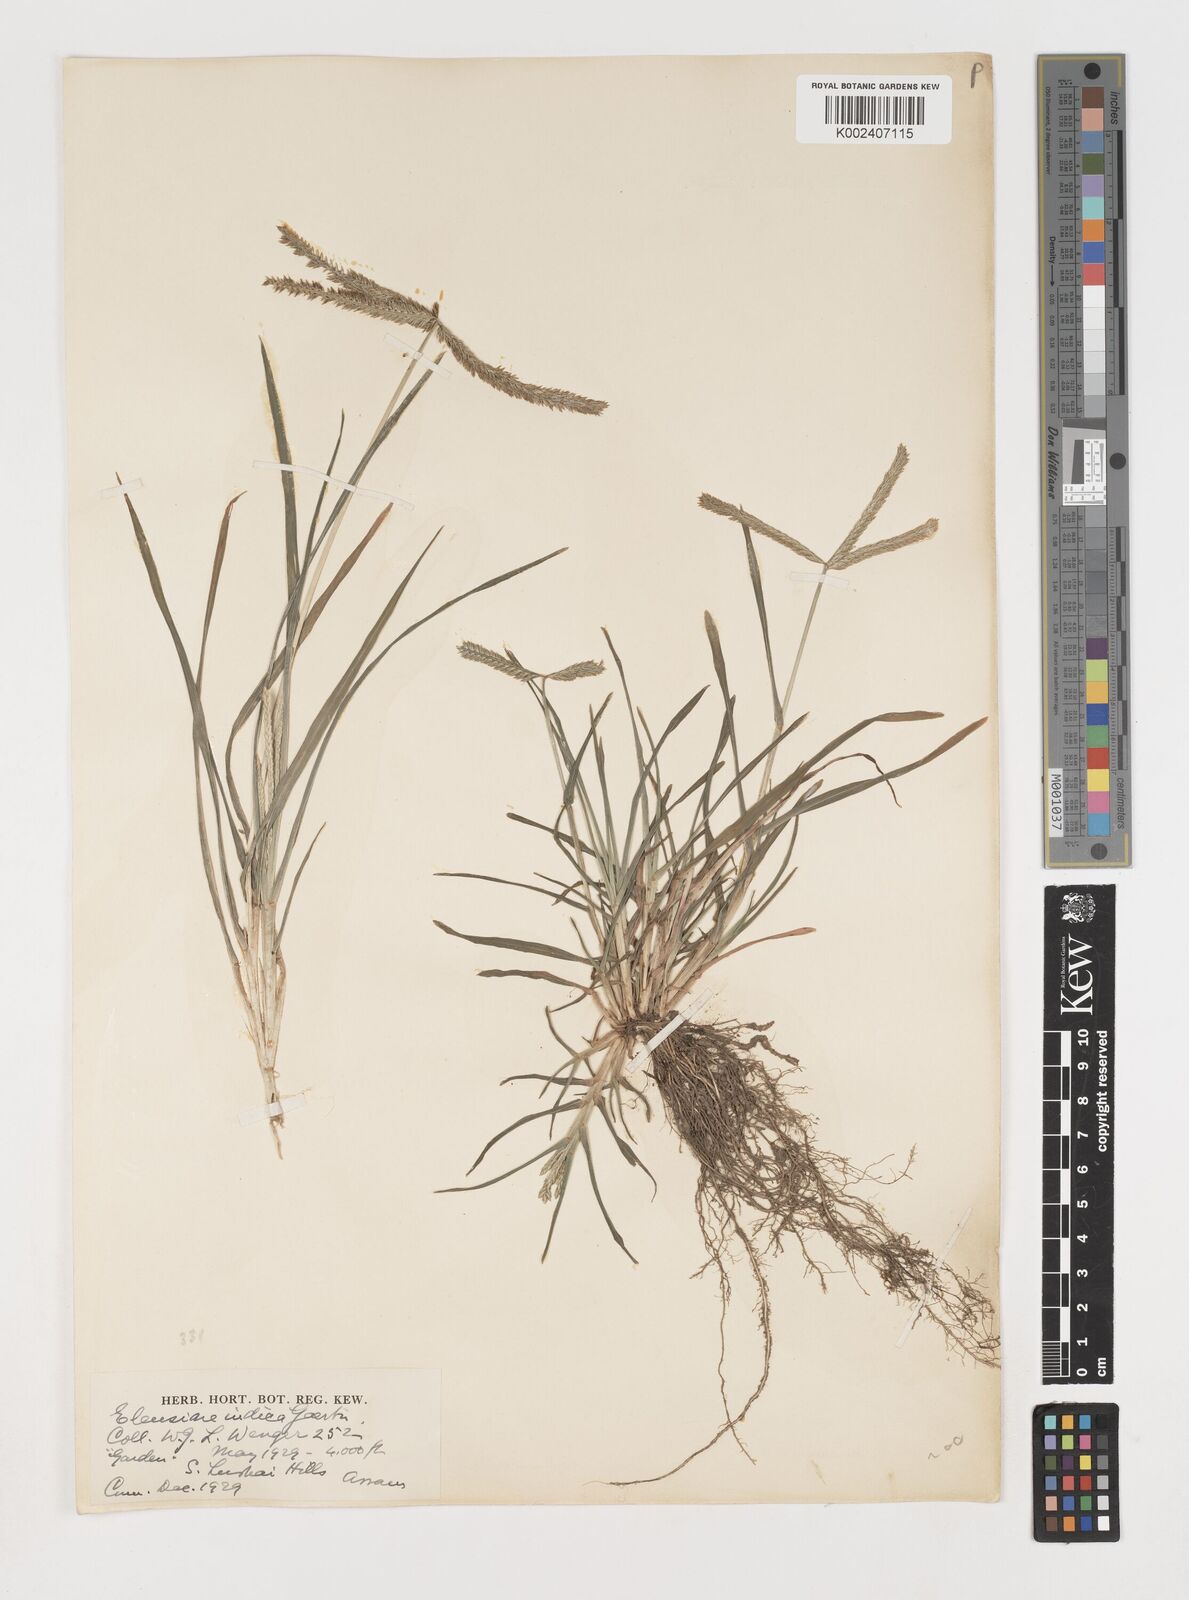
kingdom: Plantae
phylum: Tracheophyta
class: Liliopsida
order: Poales
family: Poaceae
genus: Eleusine
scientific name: Eleusine indica
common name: Yard-grass
